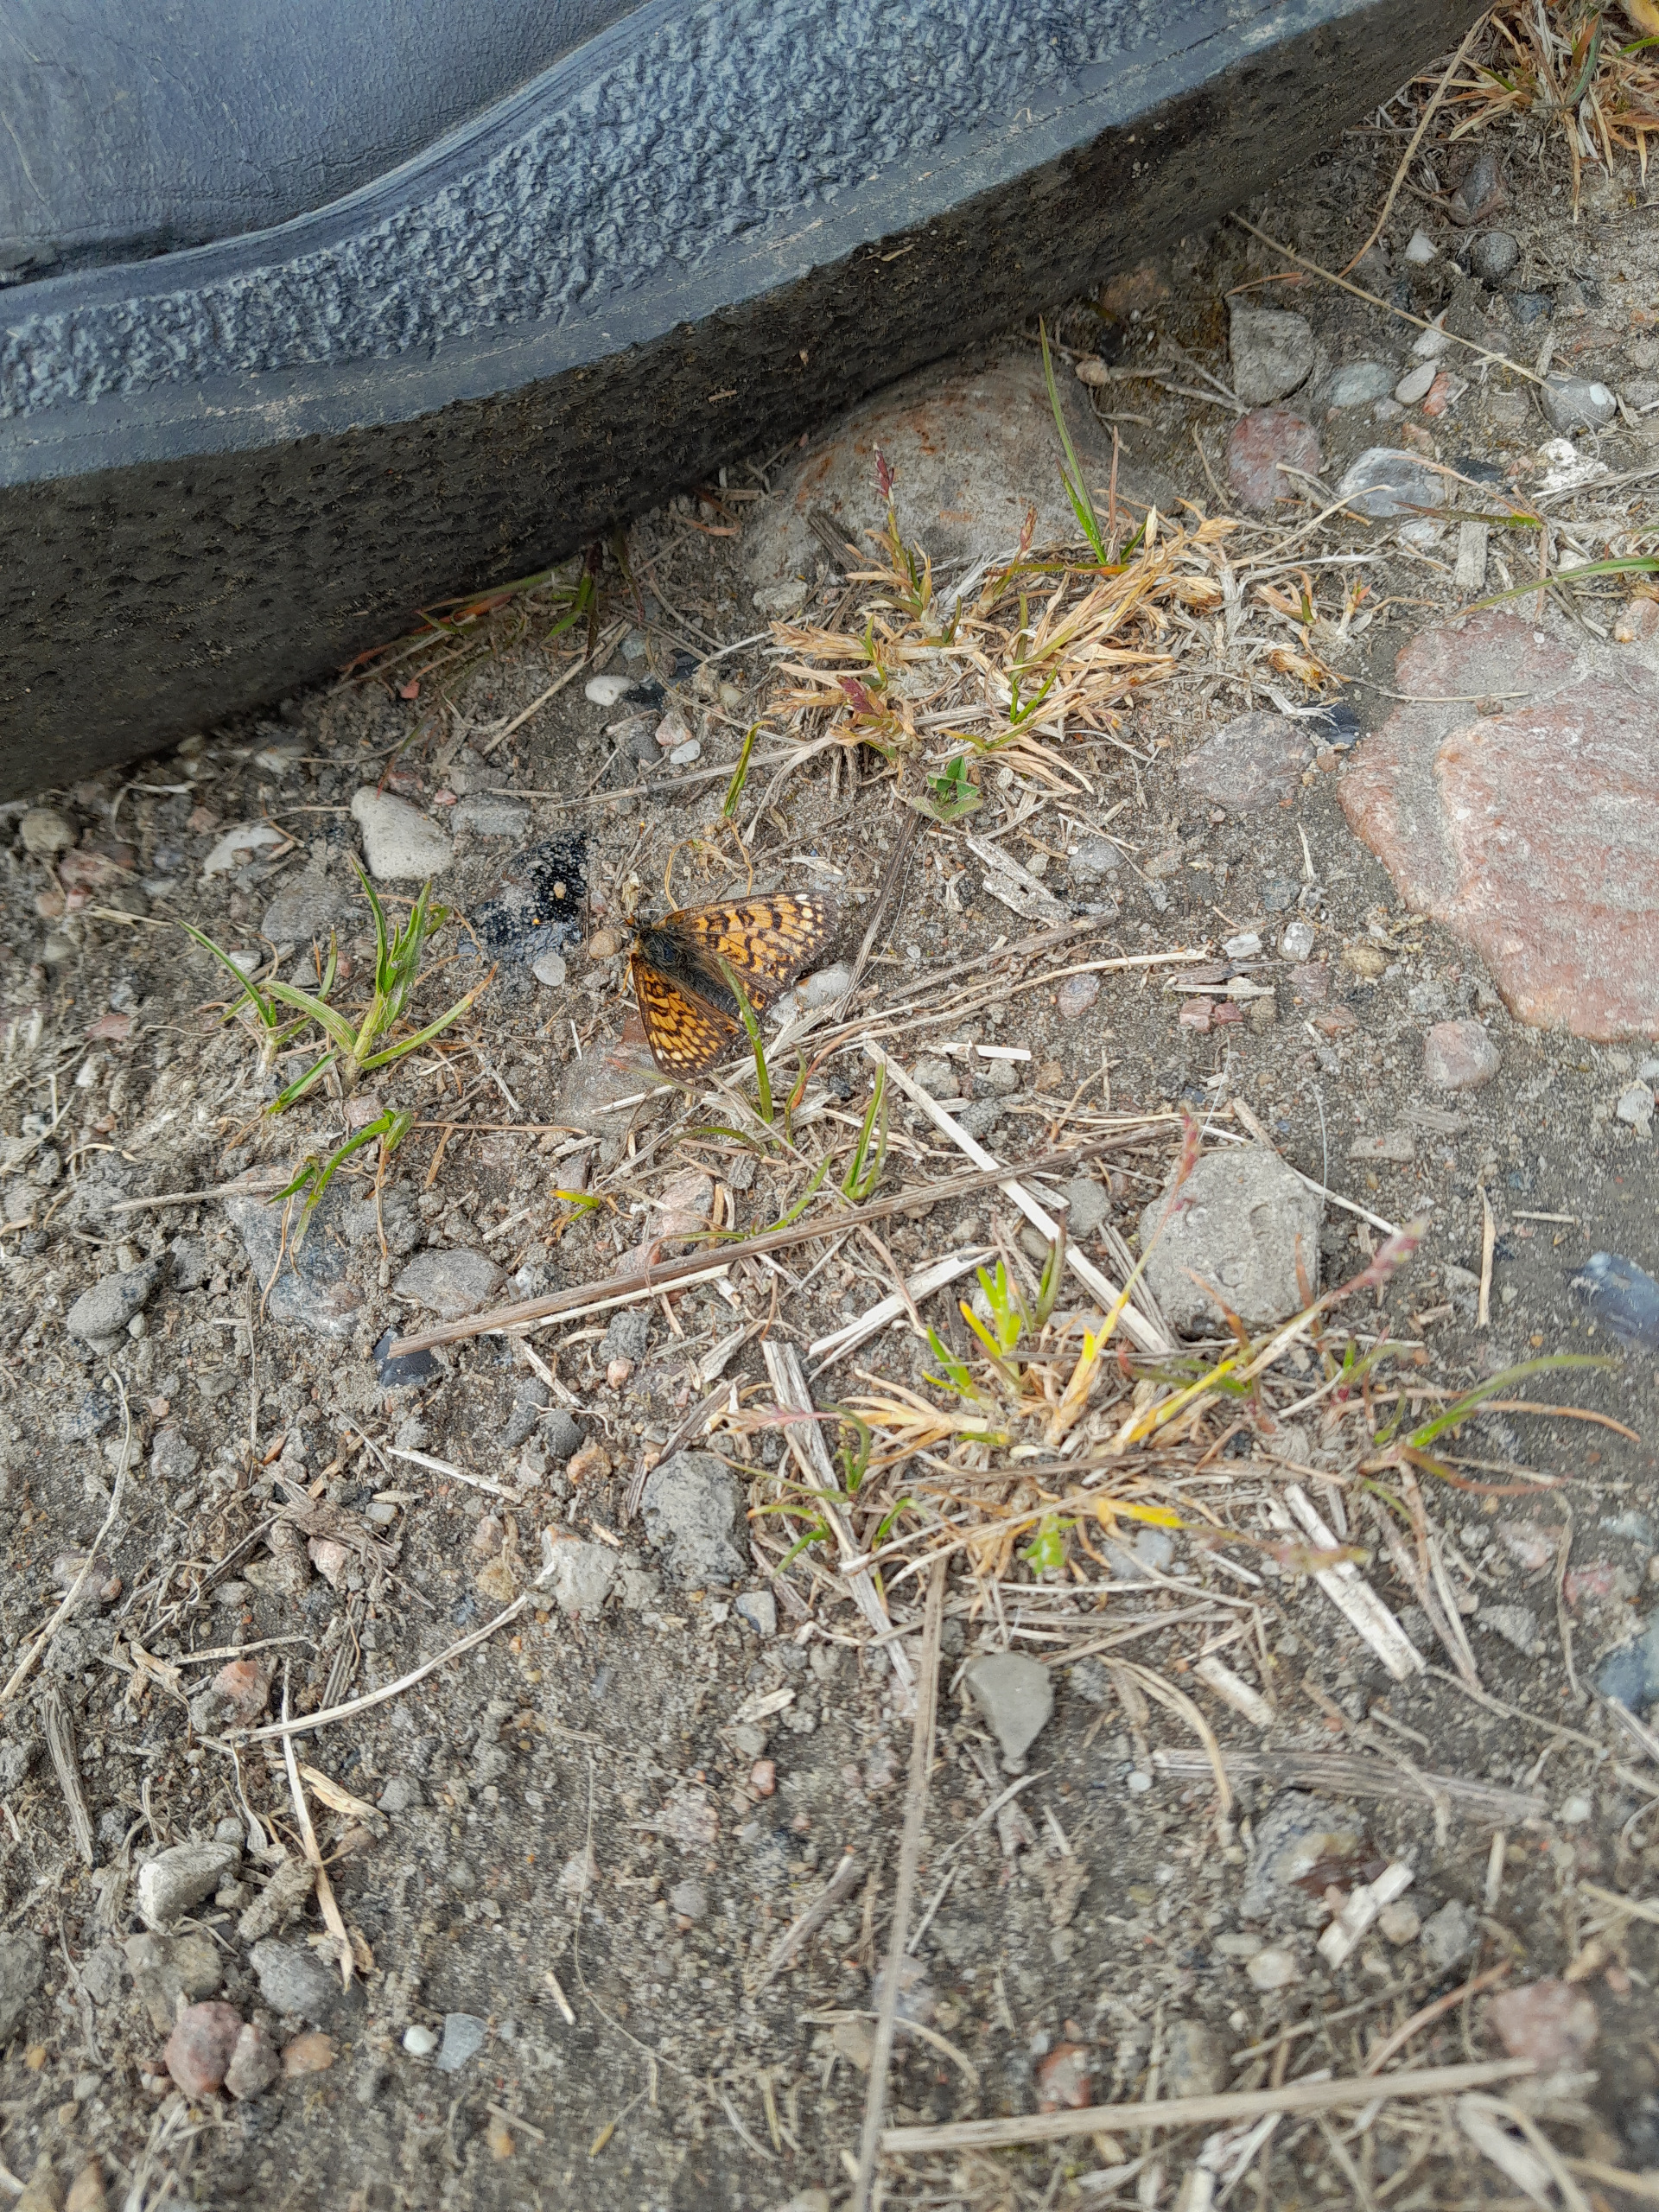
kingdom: Animalia
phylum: Arthropoda
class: Insecta
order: Lepidoptera
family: Nymphalidae
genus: Melitaea
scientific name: Melitaea cinxia
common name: Okkergul pletvinge
